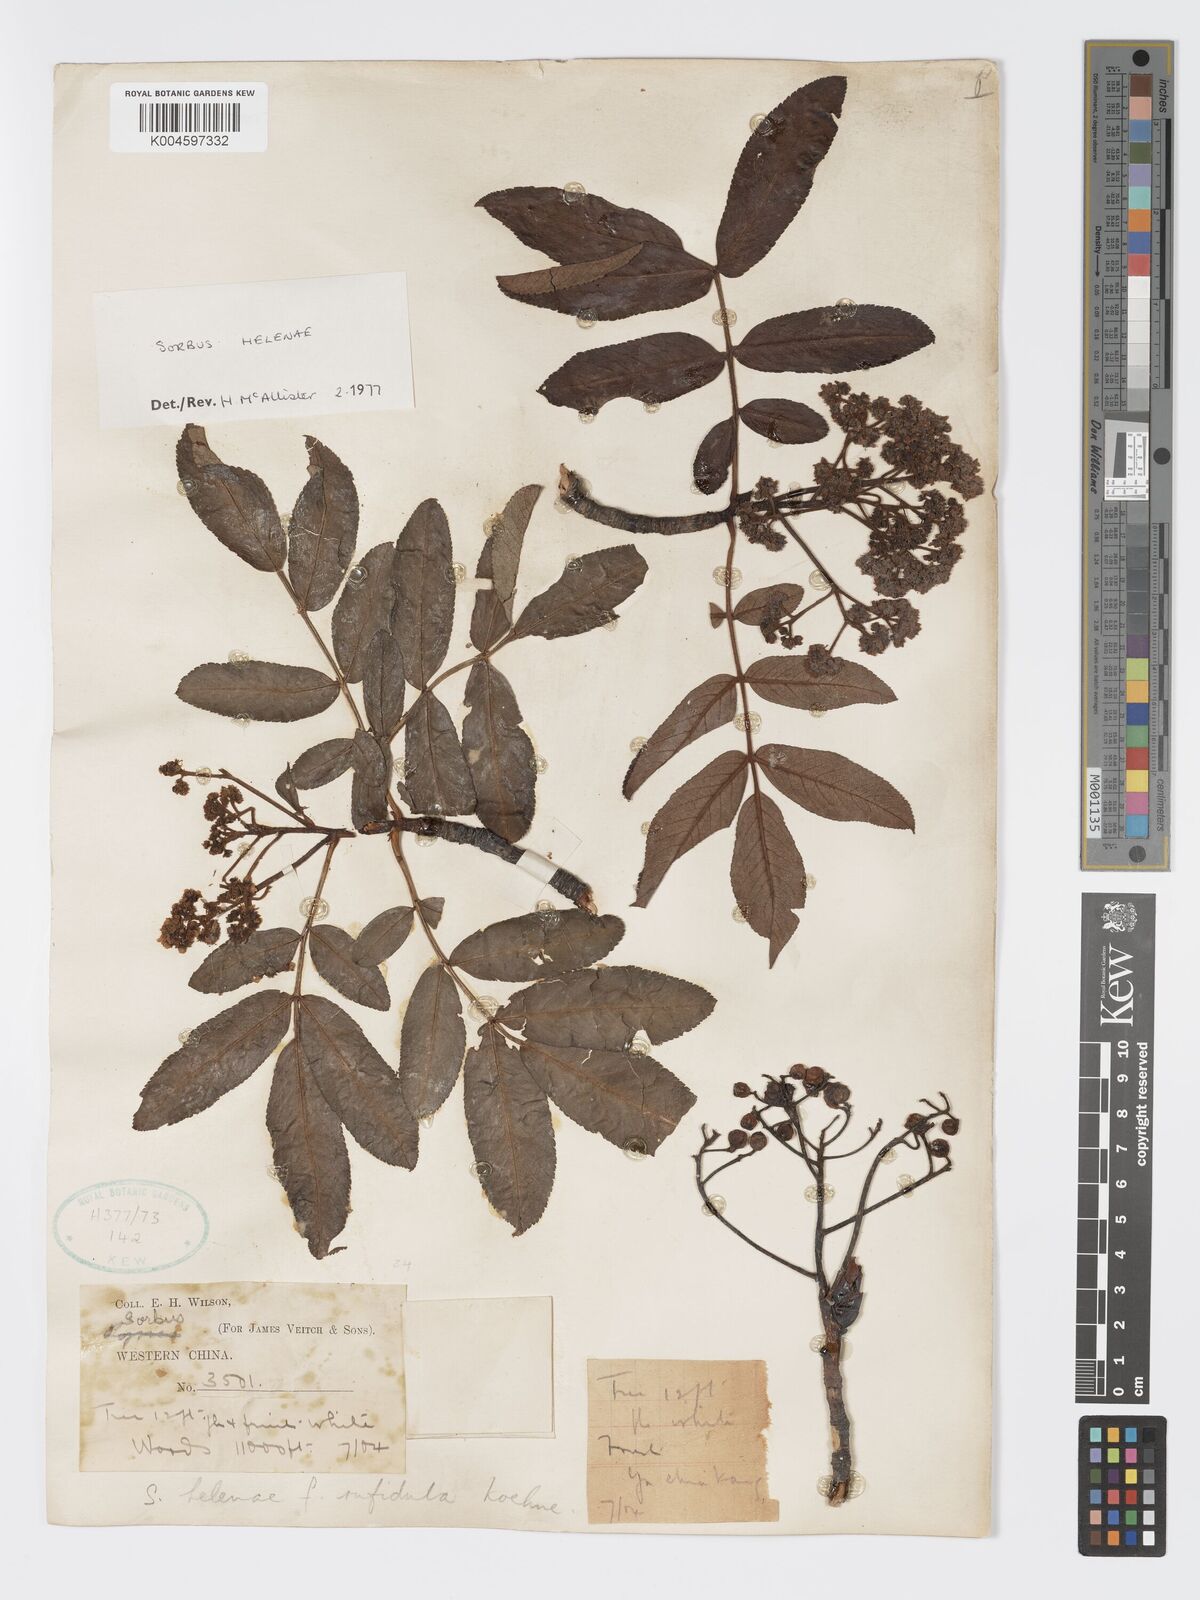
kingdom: Plantae
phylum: Tracheophyta
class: Magnoliopsida
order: Rosales
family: Rosaceae
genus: Sorbus
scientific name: Sorbus helenae
